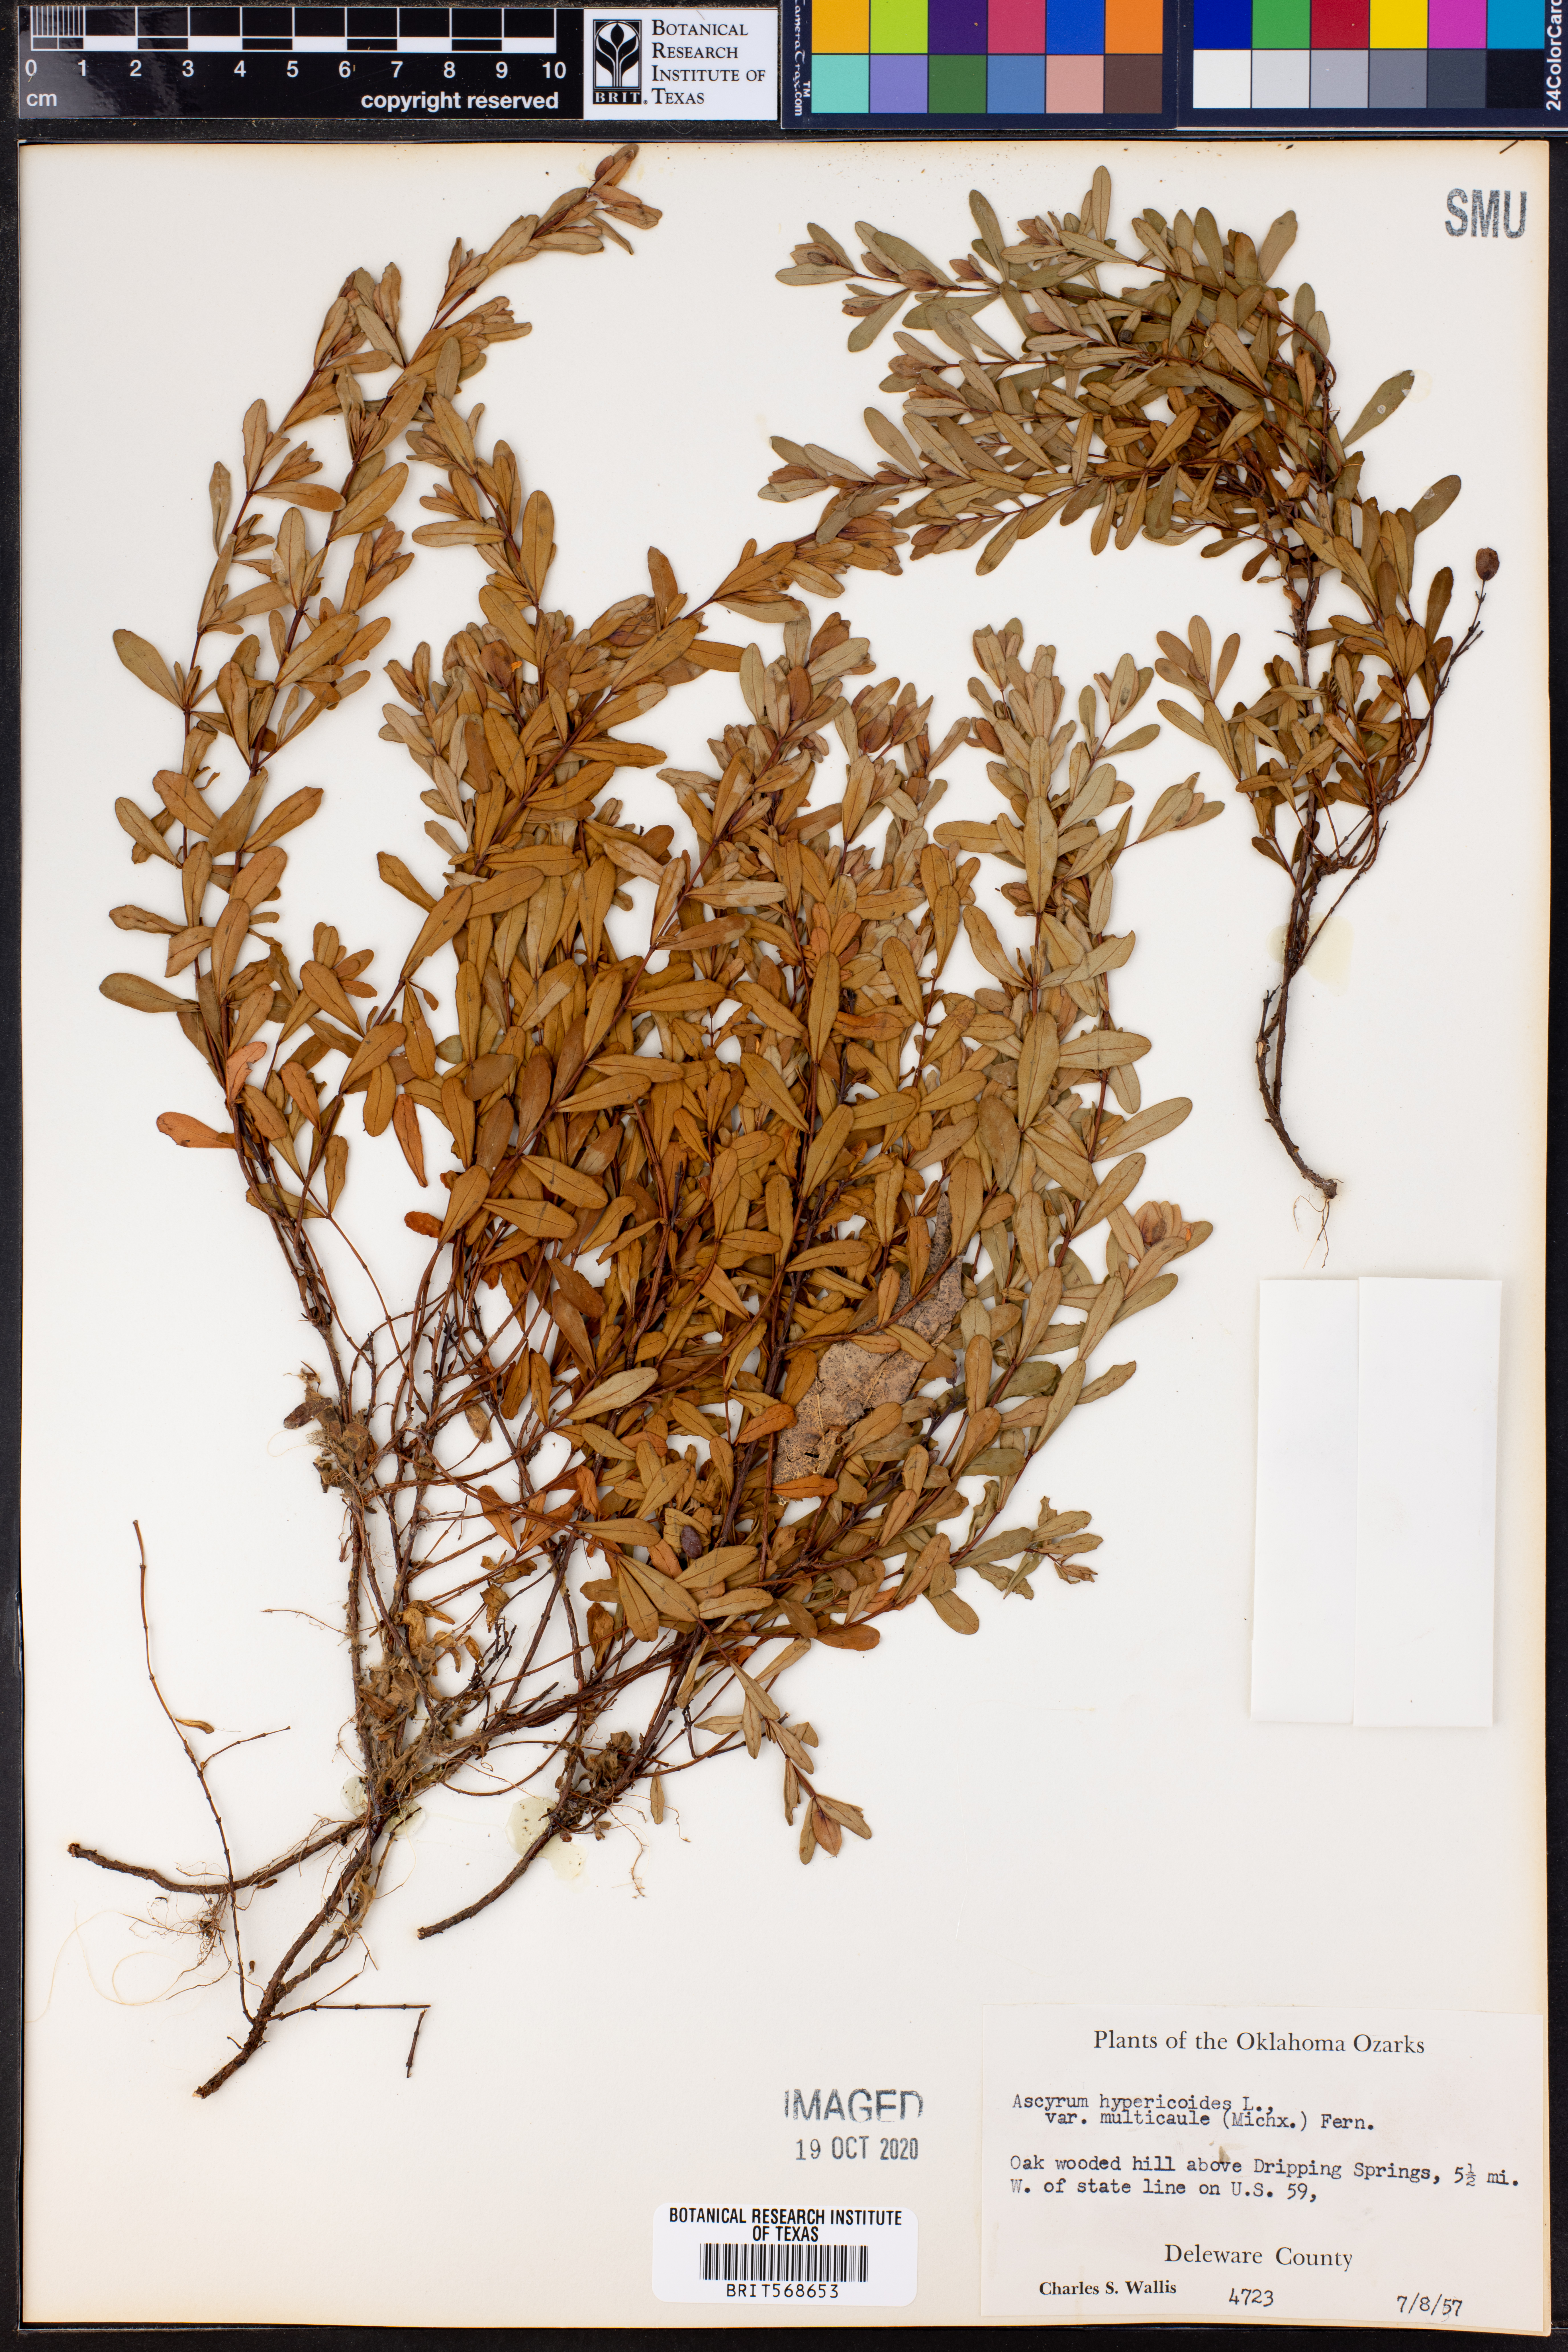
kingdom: Plantae
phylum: Tracheophyta
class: Magnoliopsida
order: Malpighiales
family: Hypericaceae
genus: Hypericum
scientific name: Hypericum hypericoides
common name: St. andrew's cross
